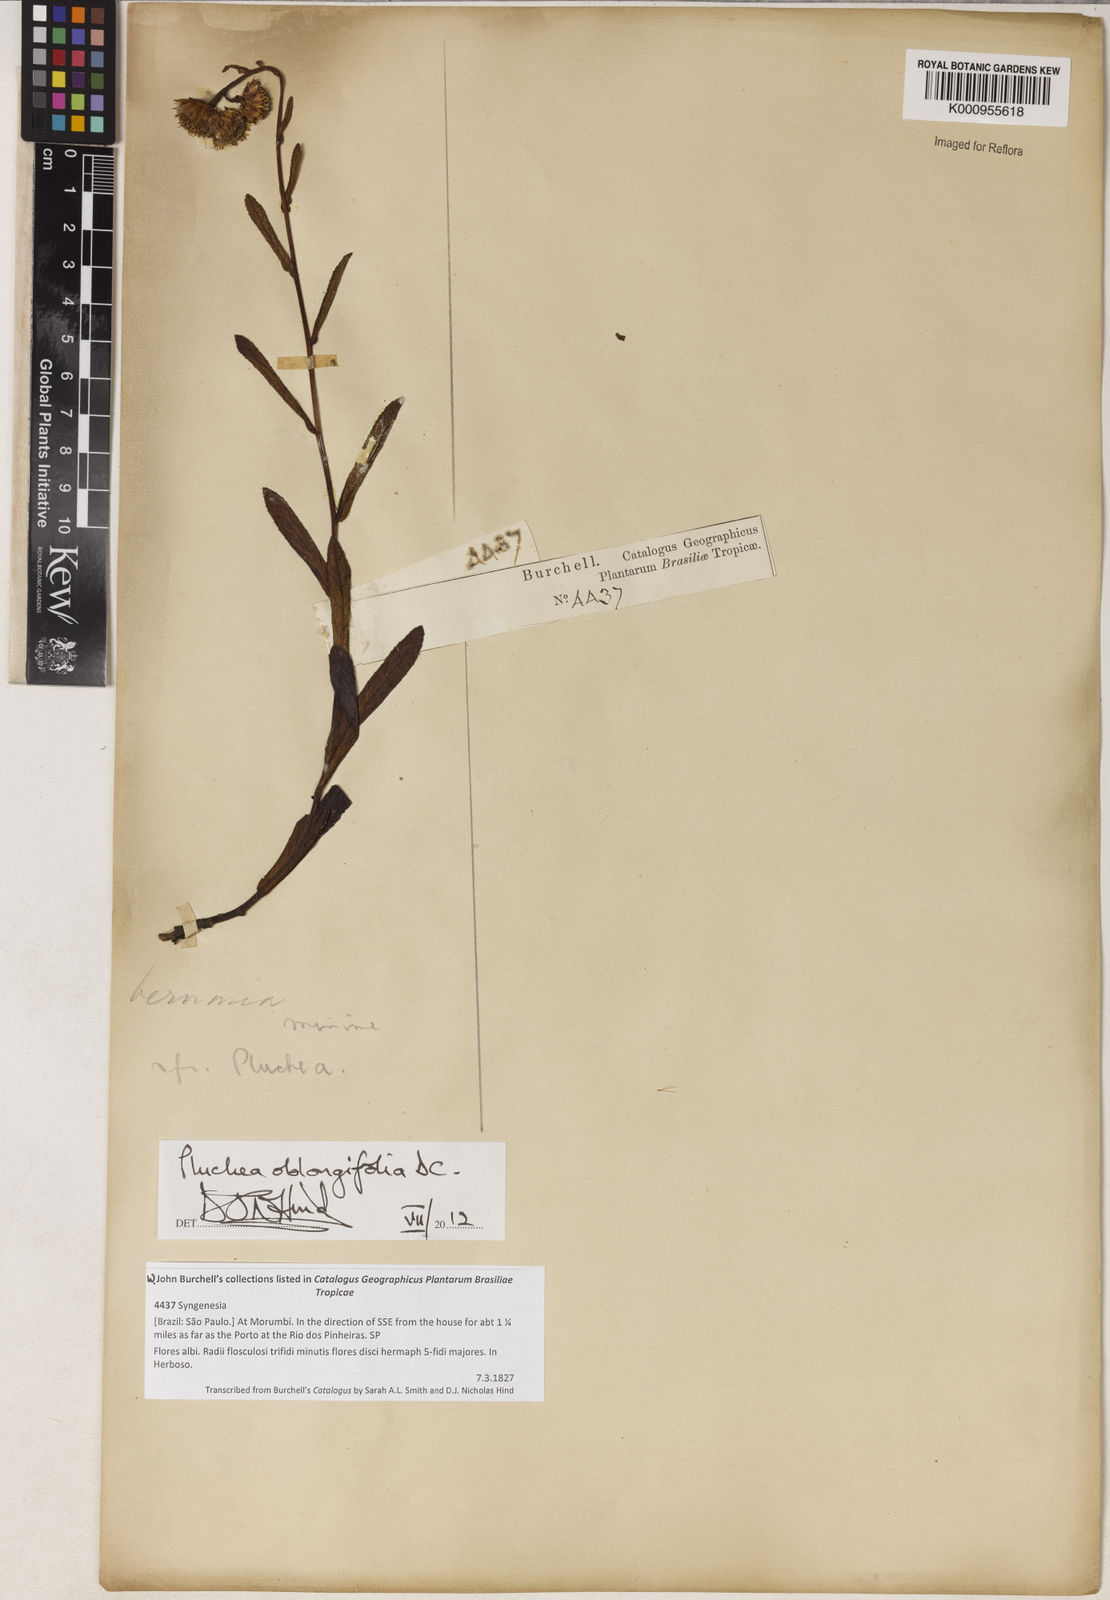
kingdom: Plantae
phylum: Tracheophyta
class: Magnoliopsida
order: Asterales
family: Asteraceae
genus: Pluchea
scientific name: Pluchea oblongifolia
